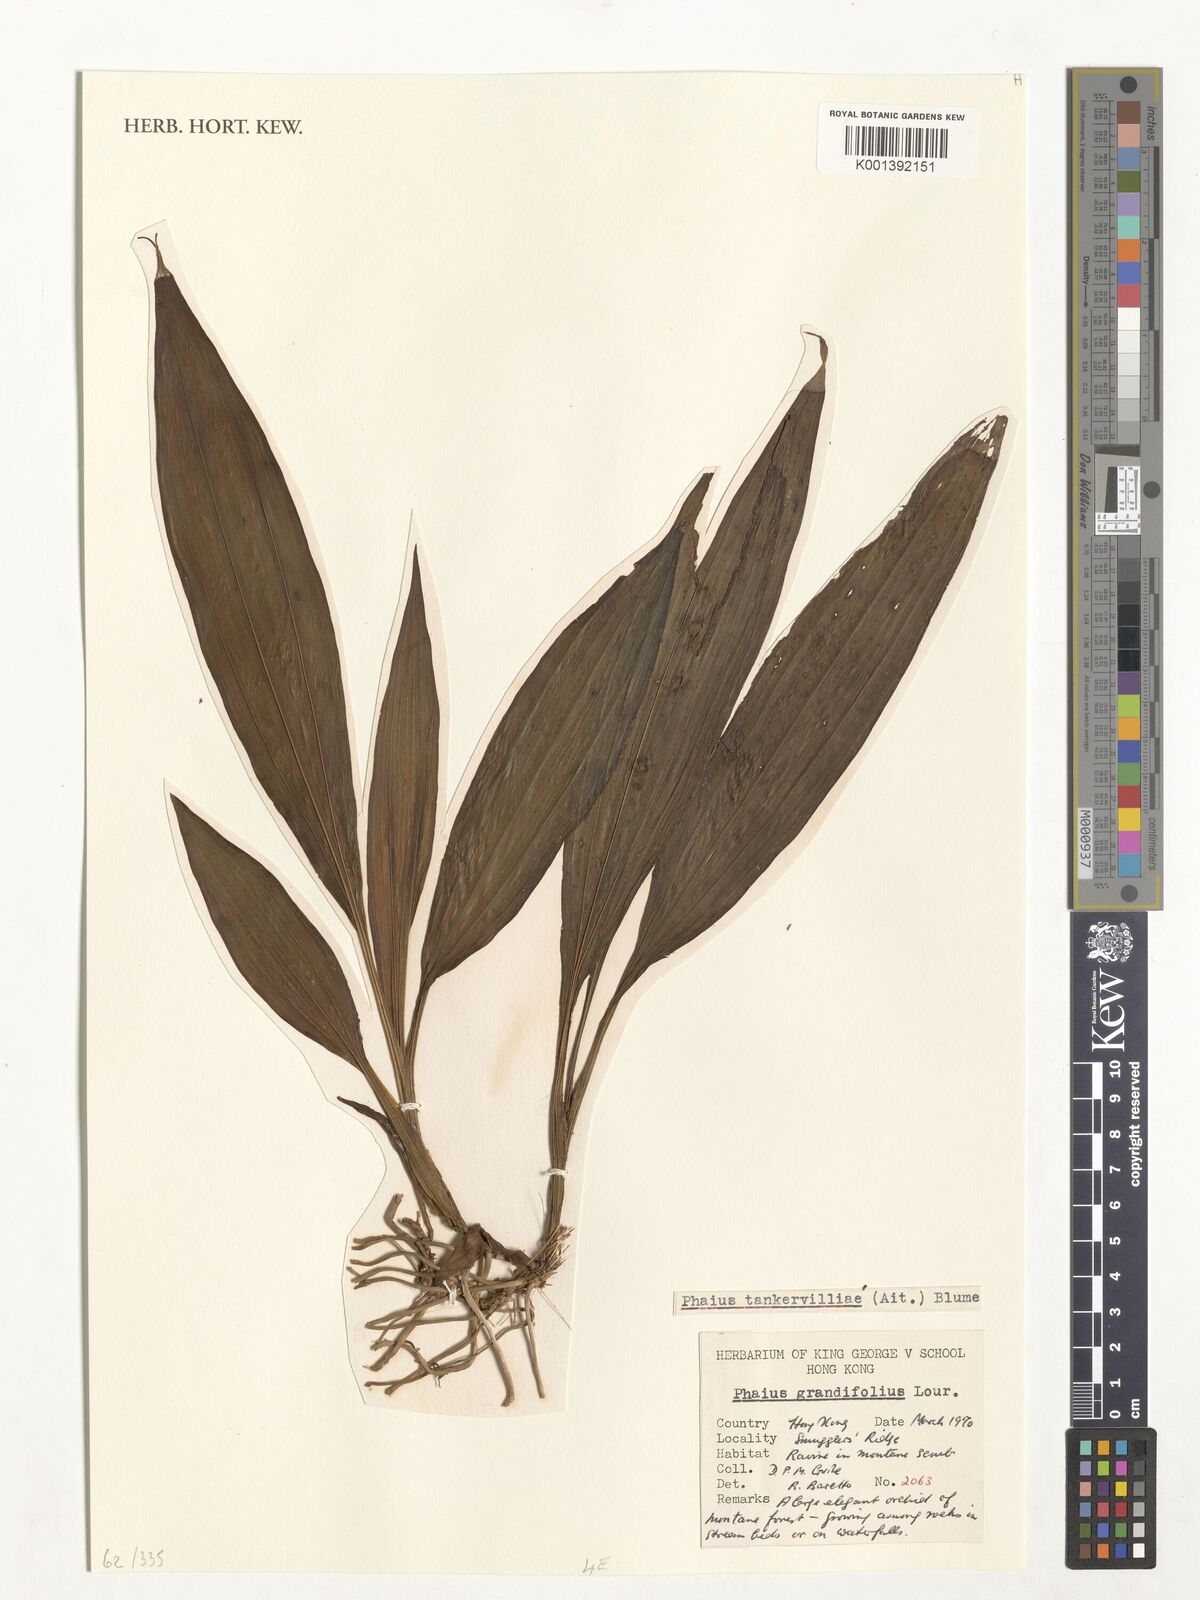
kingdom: Plantae
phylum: Tracheophyta
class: Liliopsida
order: Asparagales
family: Orchidaceae
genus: Calanthe
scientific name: Calanthe tankervilleae
